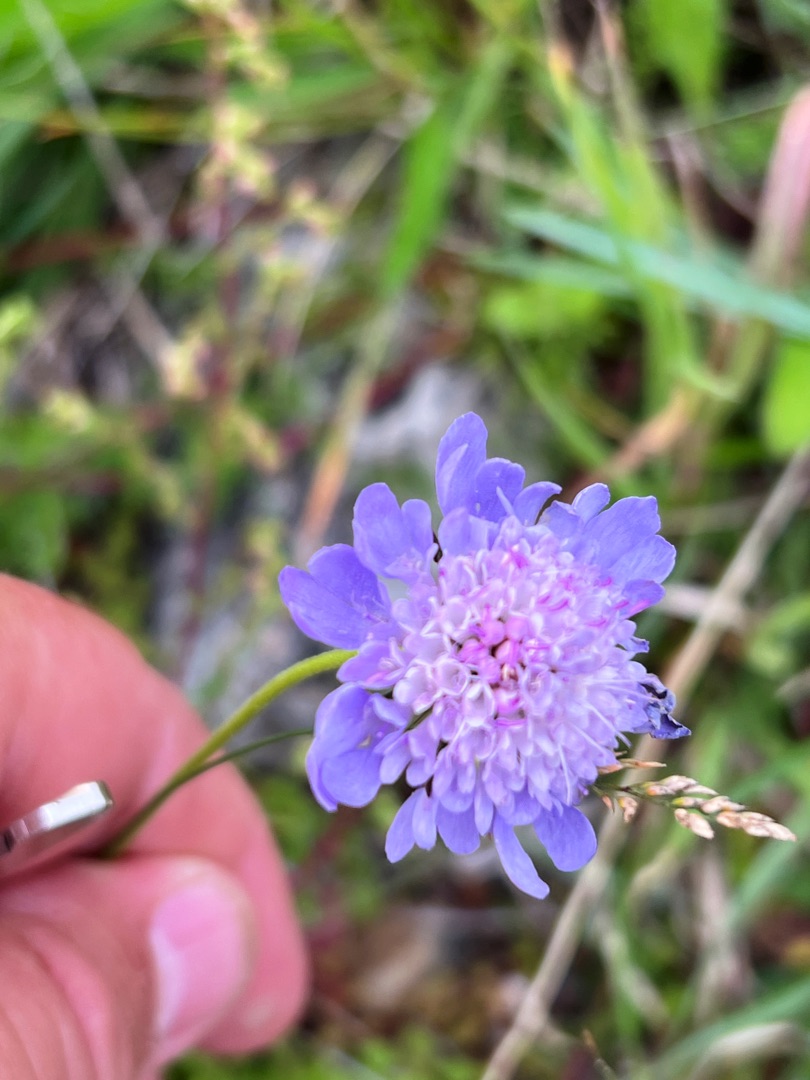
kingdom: Plantae
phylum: Tracheophyta
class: Magnoliopsida
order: Dipsacales
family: Caprifoliaceae
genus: Scabiosa
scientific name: Scabiosa columbaria
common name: Due-skabiose
